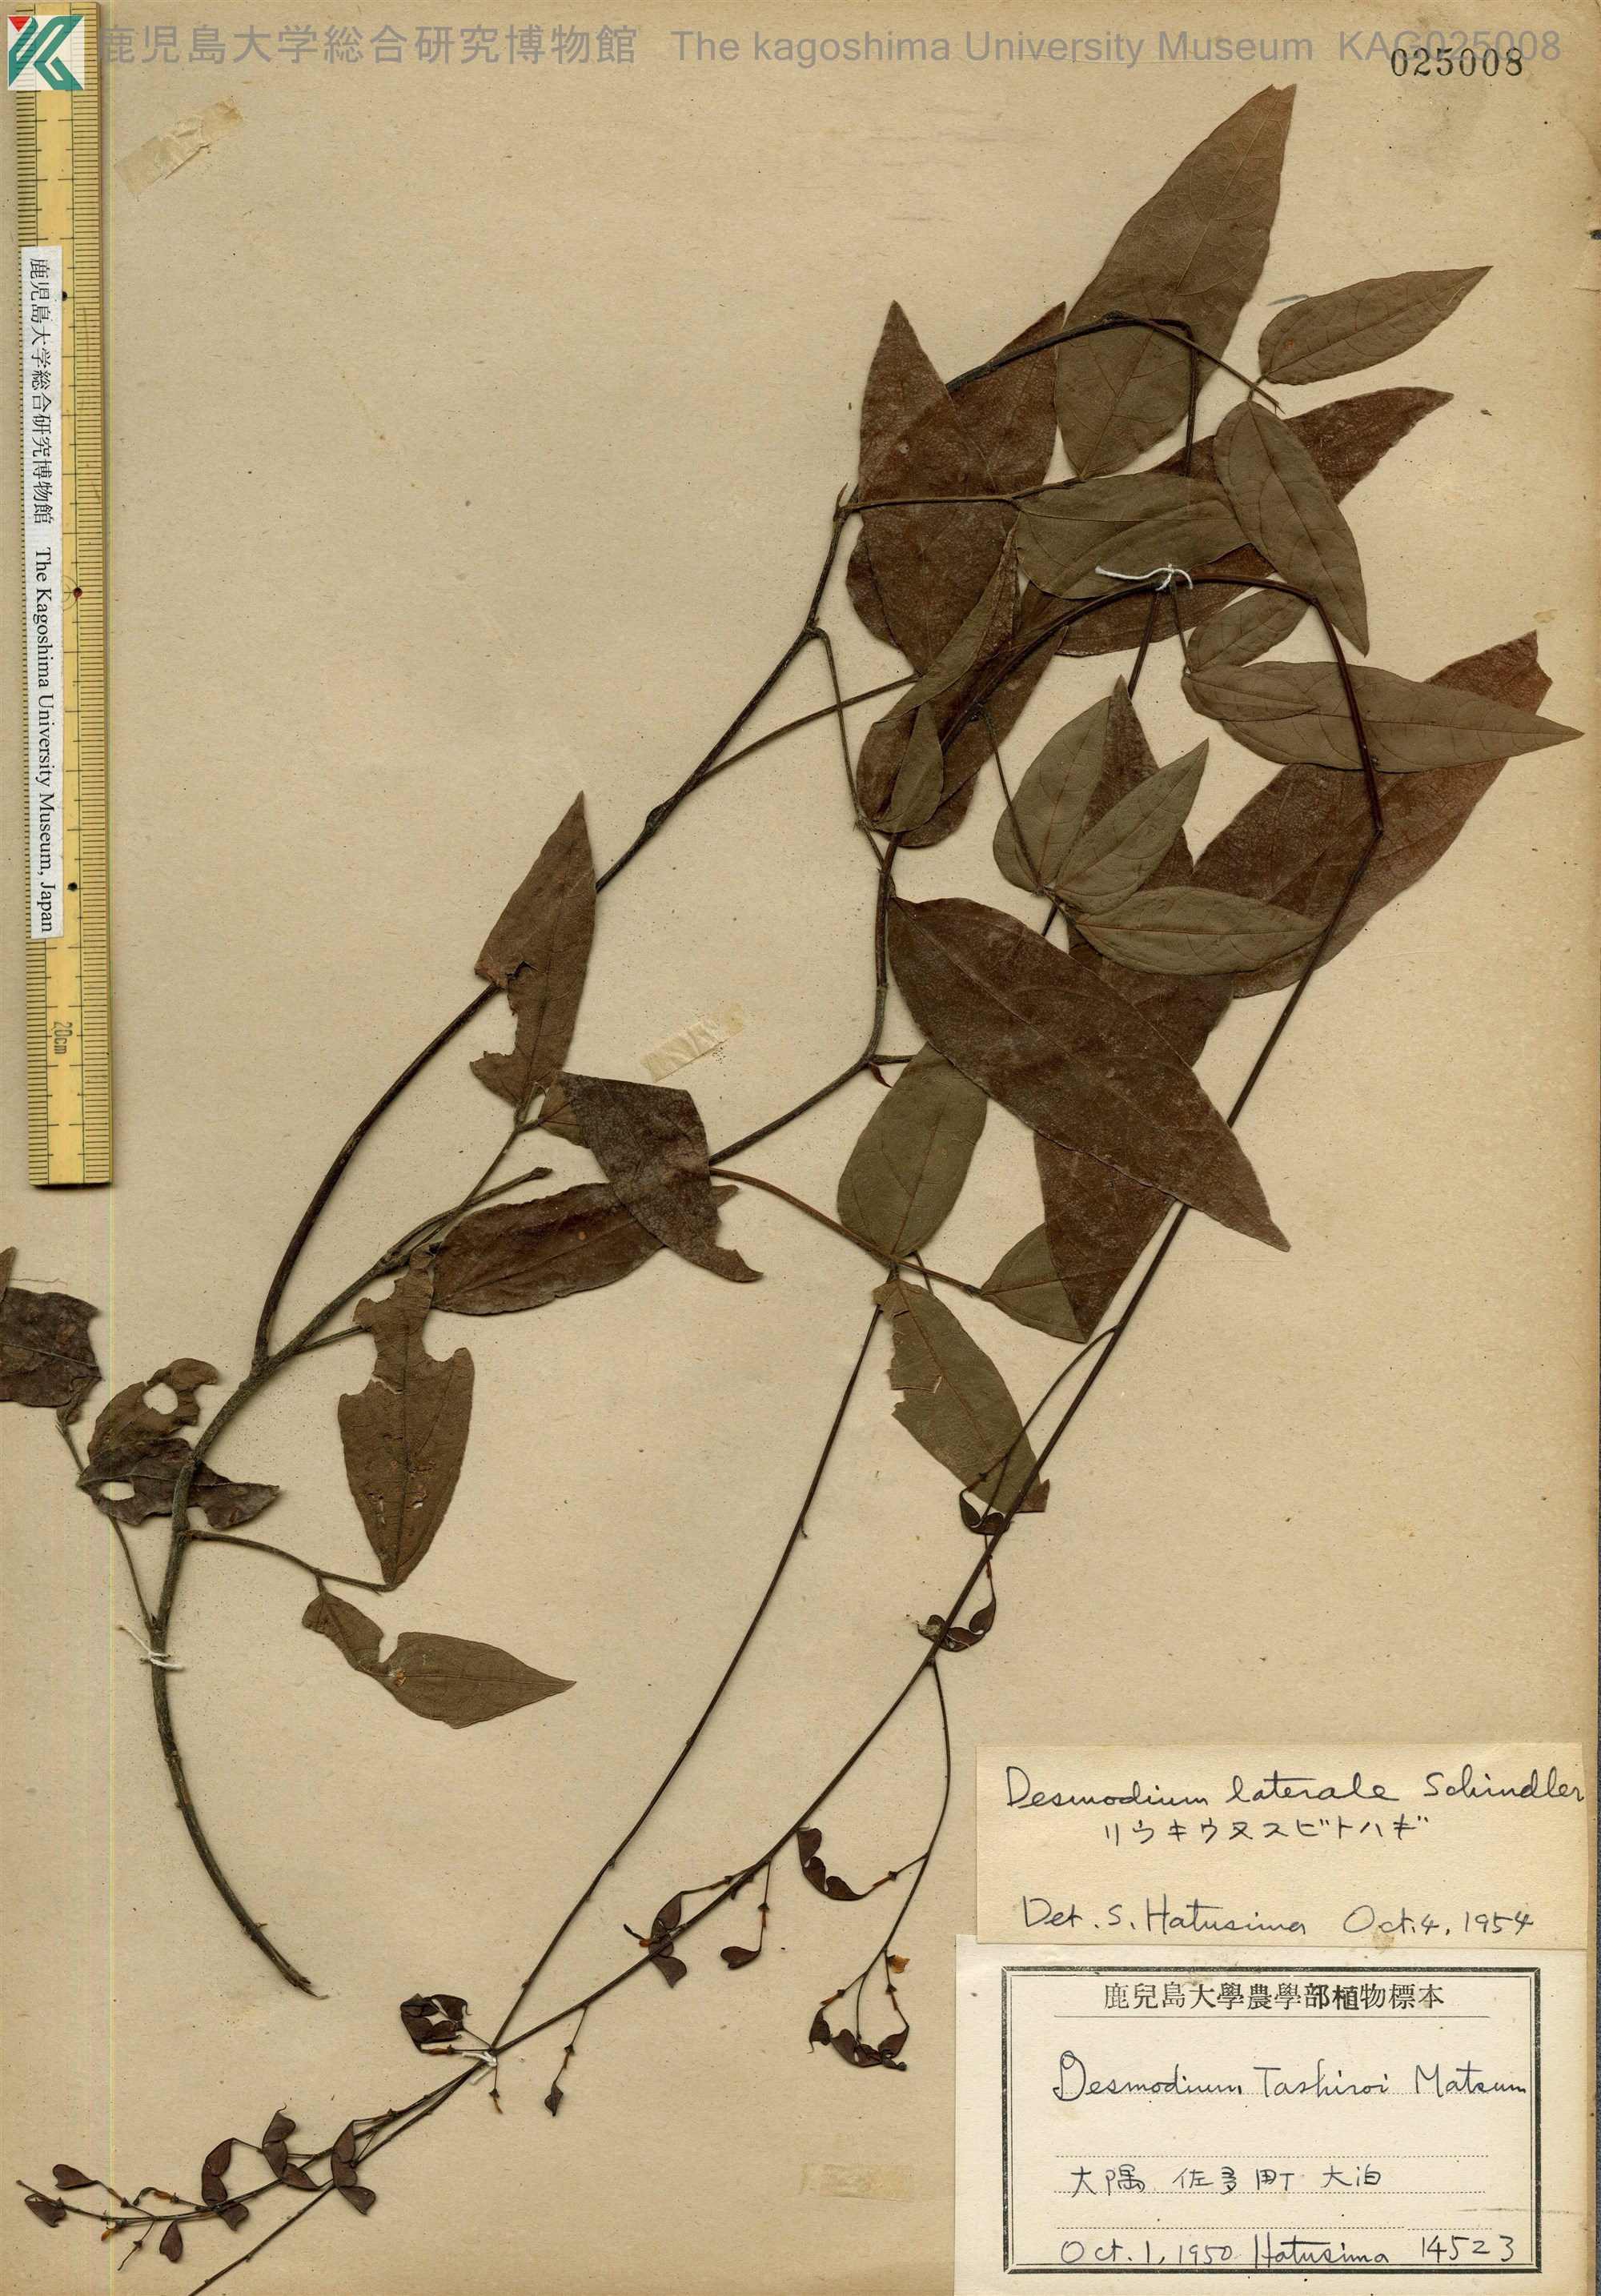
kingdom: Plantae
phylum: Tracheophyta
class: Magnoliopsida
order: Fabales
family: Fabaceae
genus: Hylodesmum
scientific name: Hylodesmum laterale
